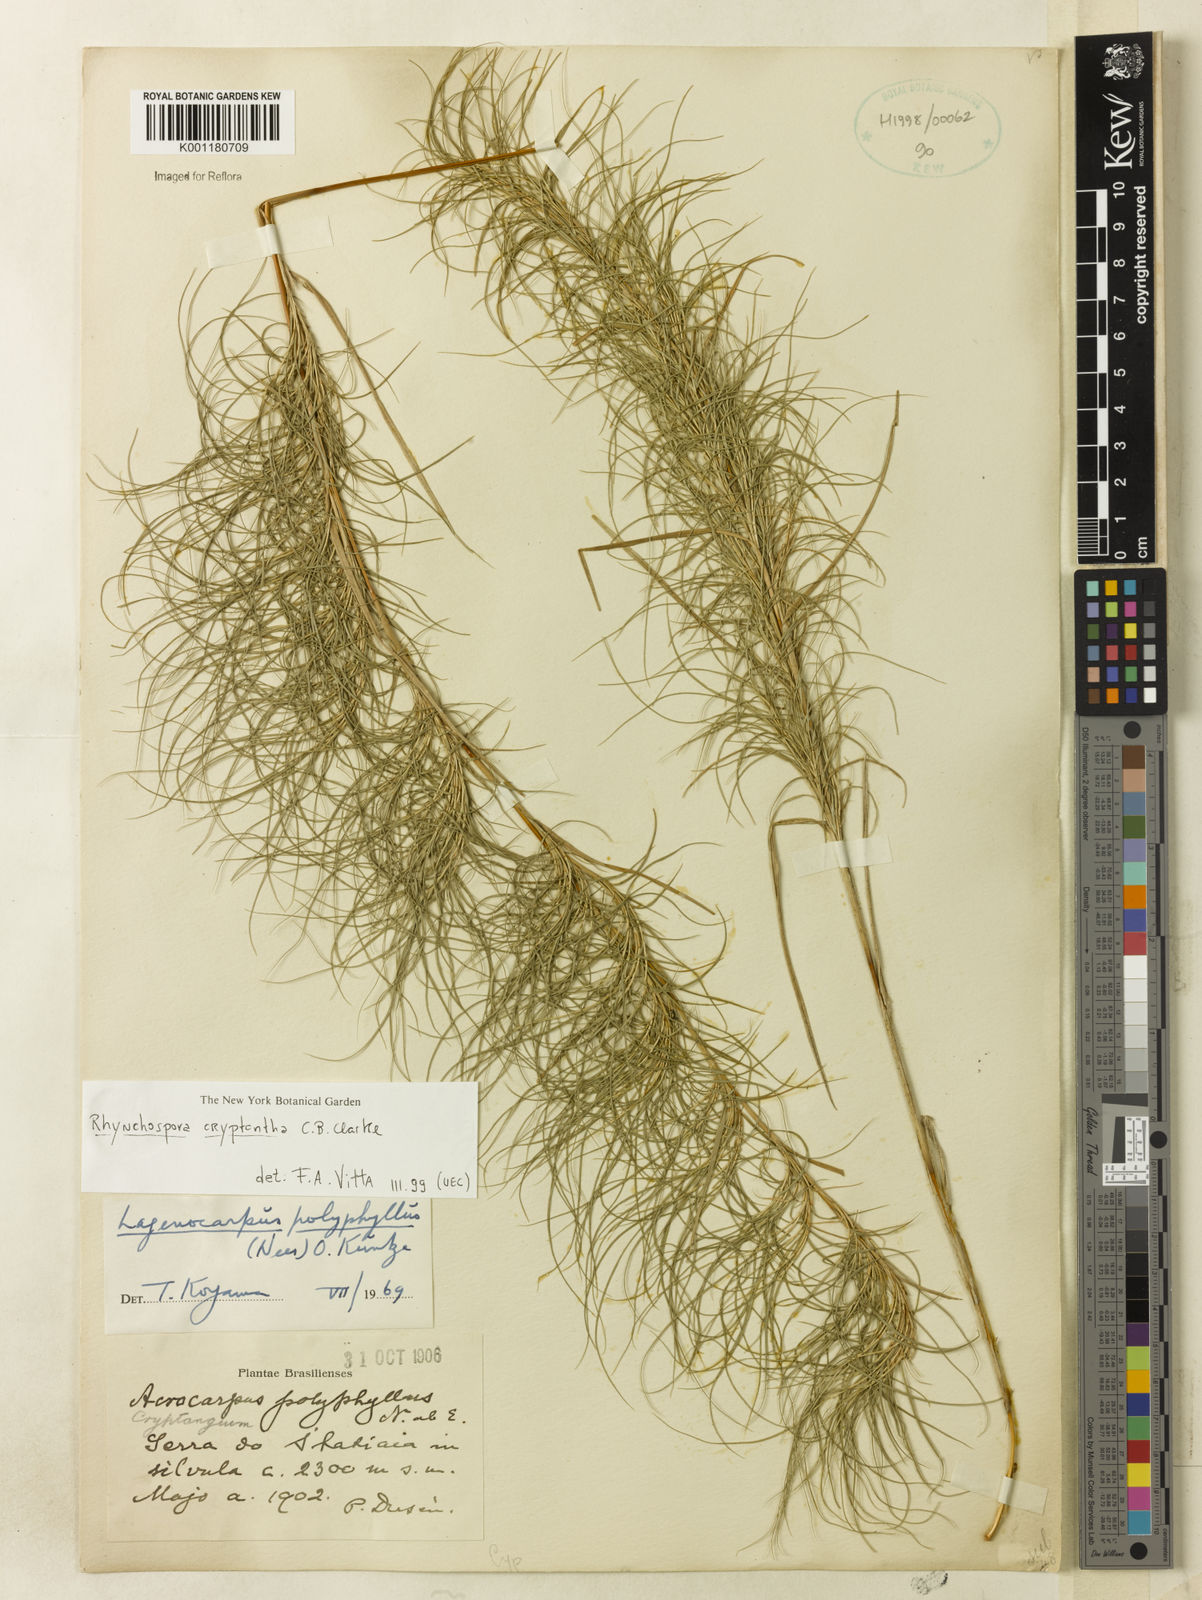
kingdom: Plantae
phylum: Tracheophyta
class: Liliopsida
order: Poales
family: Cyperaceae
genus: Rhynchospora
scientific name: Rhynchospora biflora
